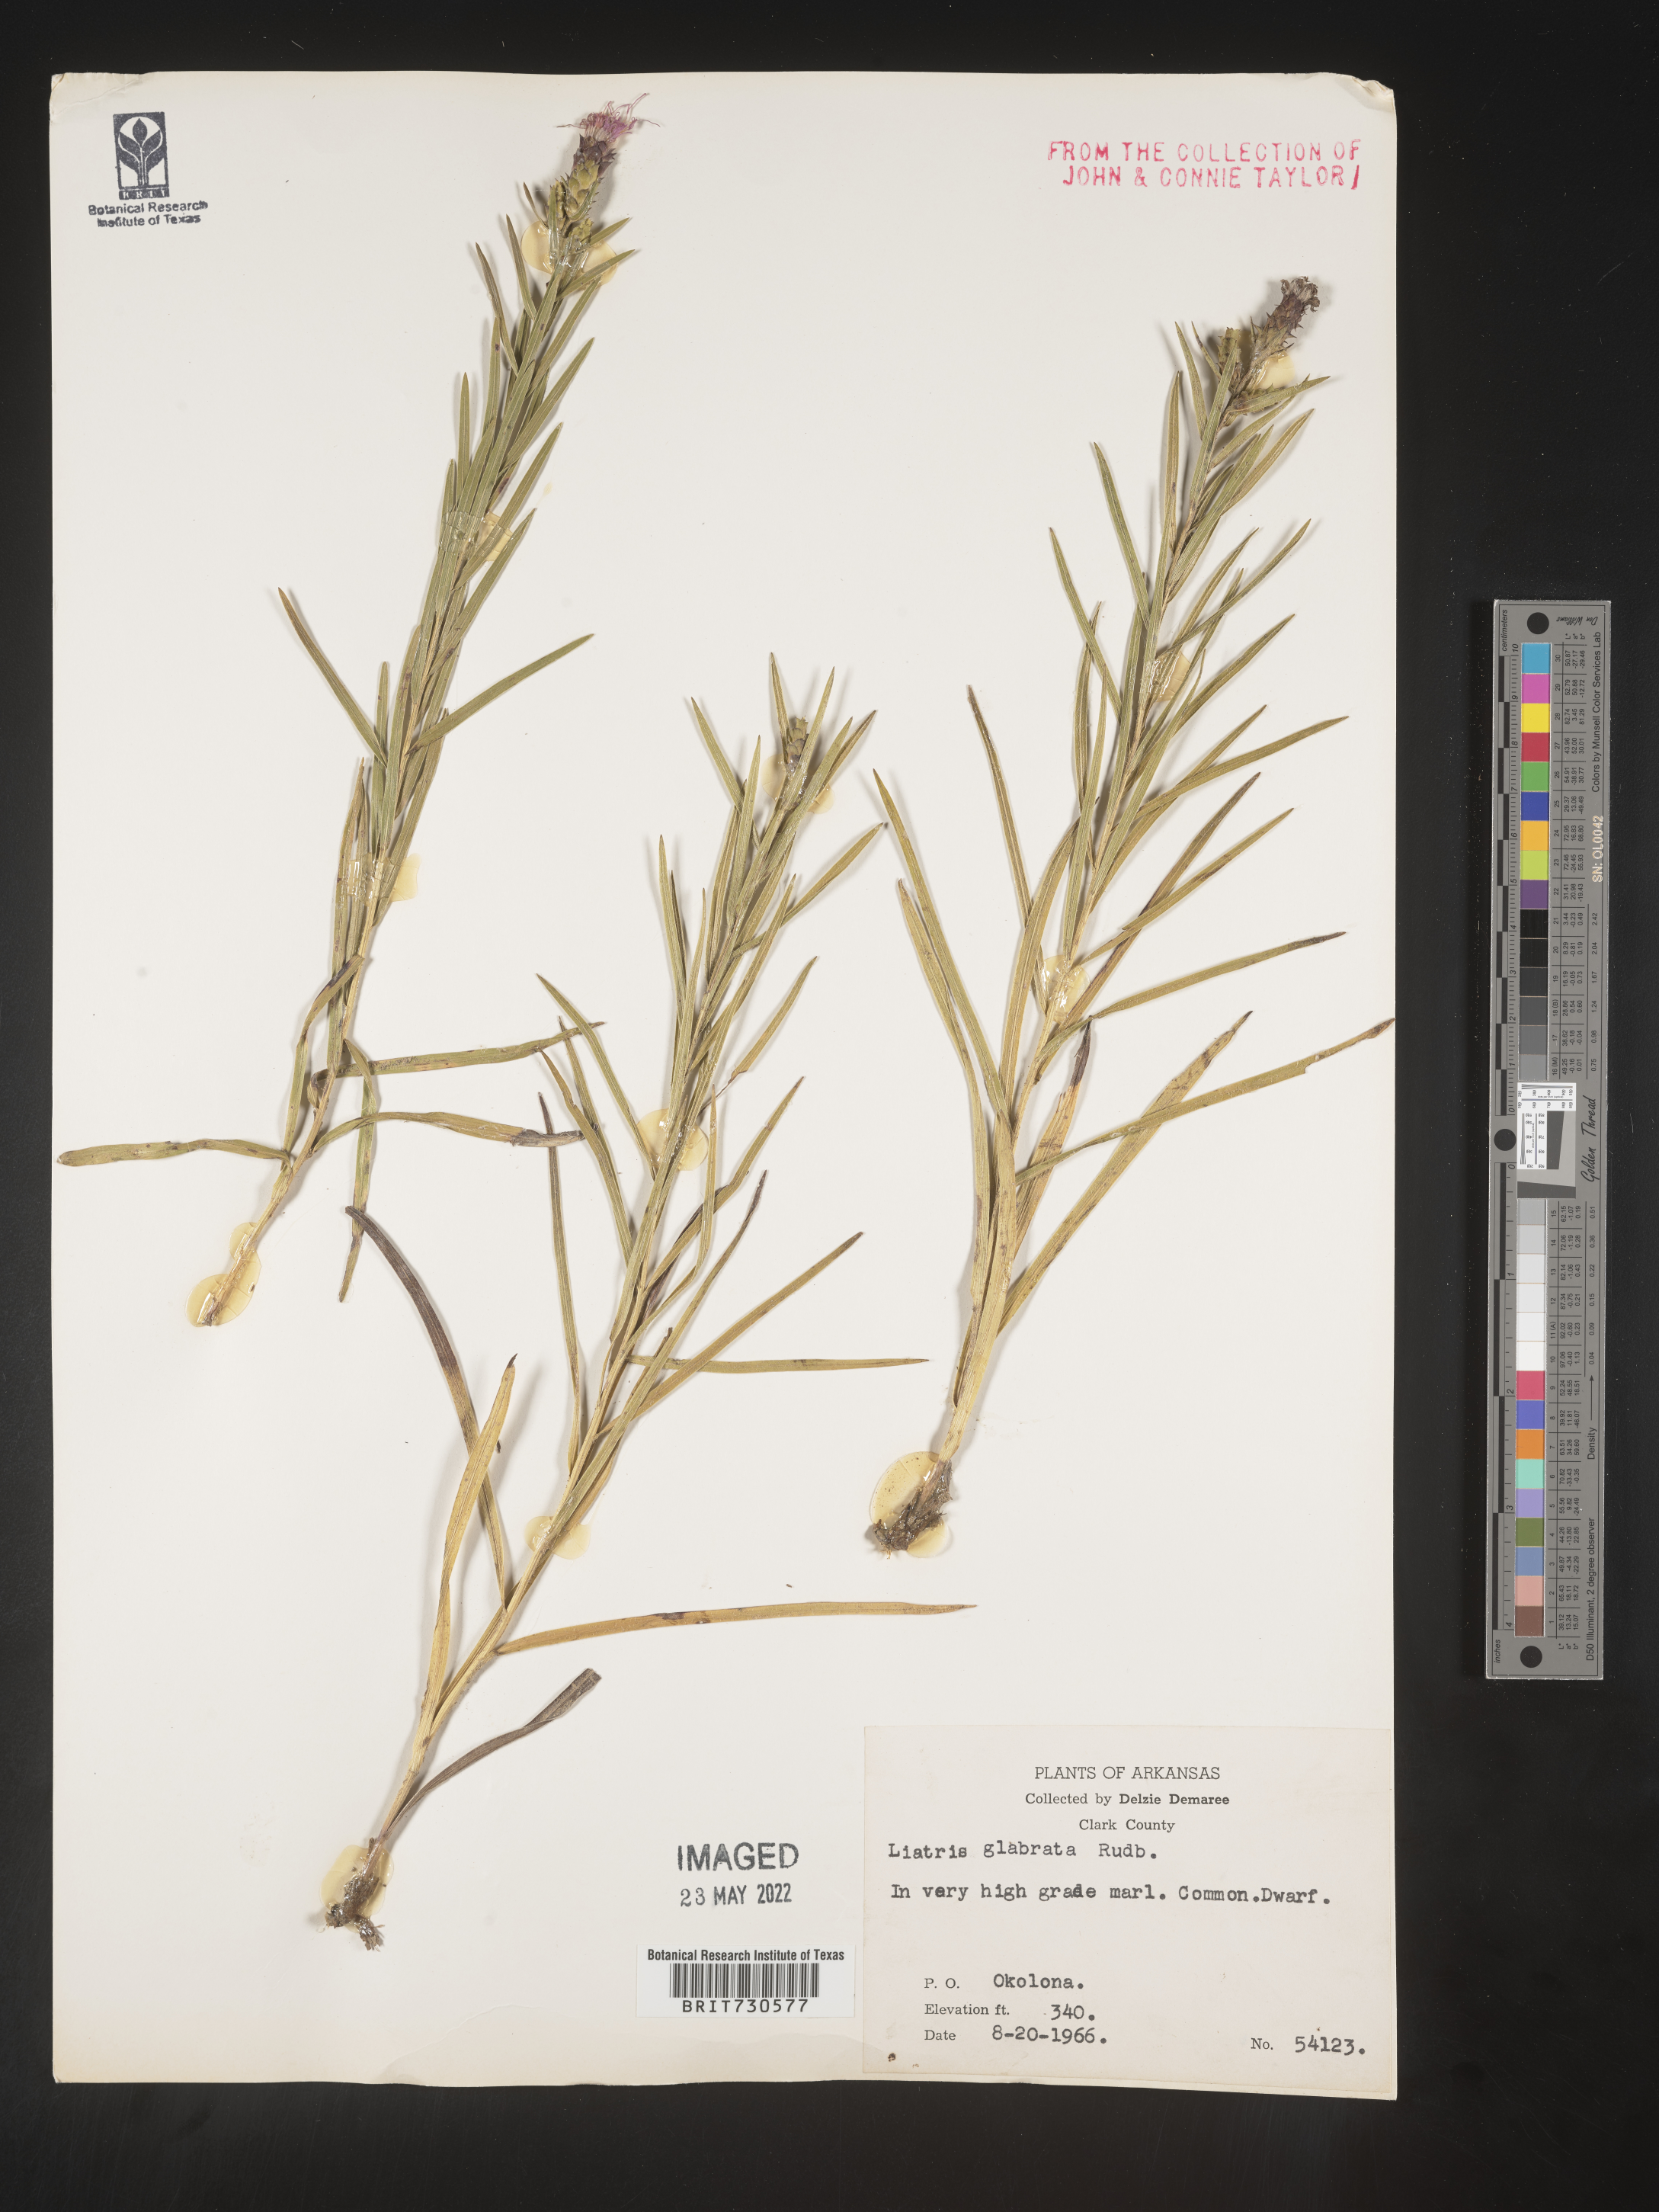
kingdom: Plantae
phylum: Tracheophyta
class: Magnoliopsida
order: Asterales
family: Asteraceae
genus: Liatris
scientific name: Liatris hirsuta
